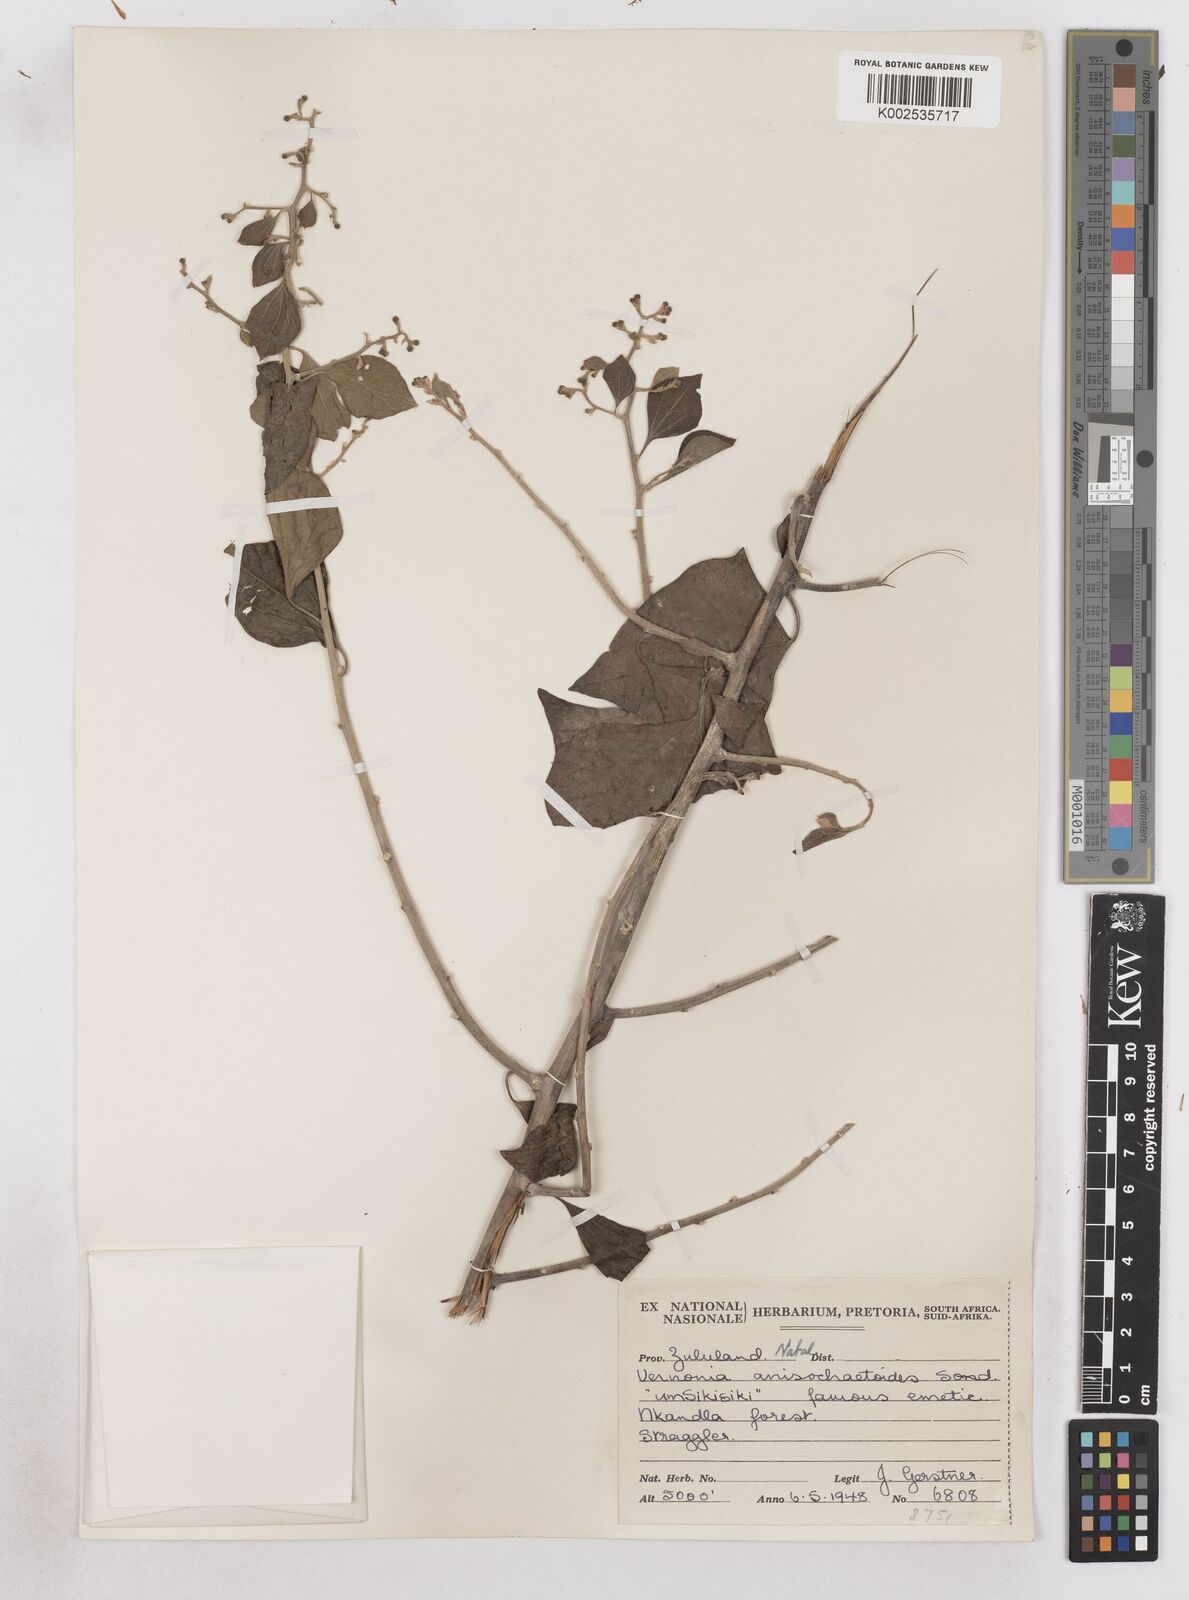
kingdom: Plantae
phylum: Tracheophyta
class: Magnoliopsida
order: Asterales
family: Asteraceae
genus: Distephanus
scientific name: Distephanus anisochaetoides
